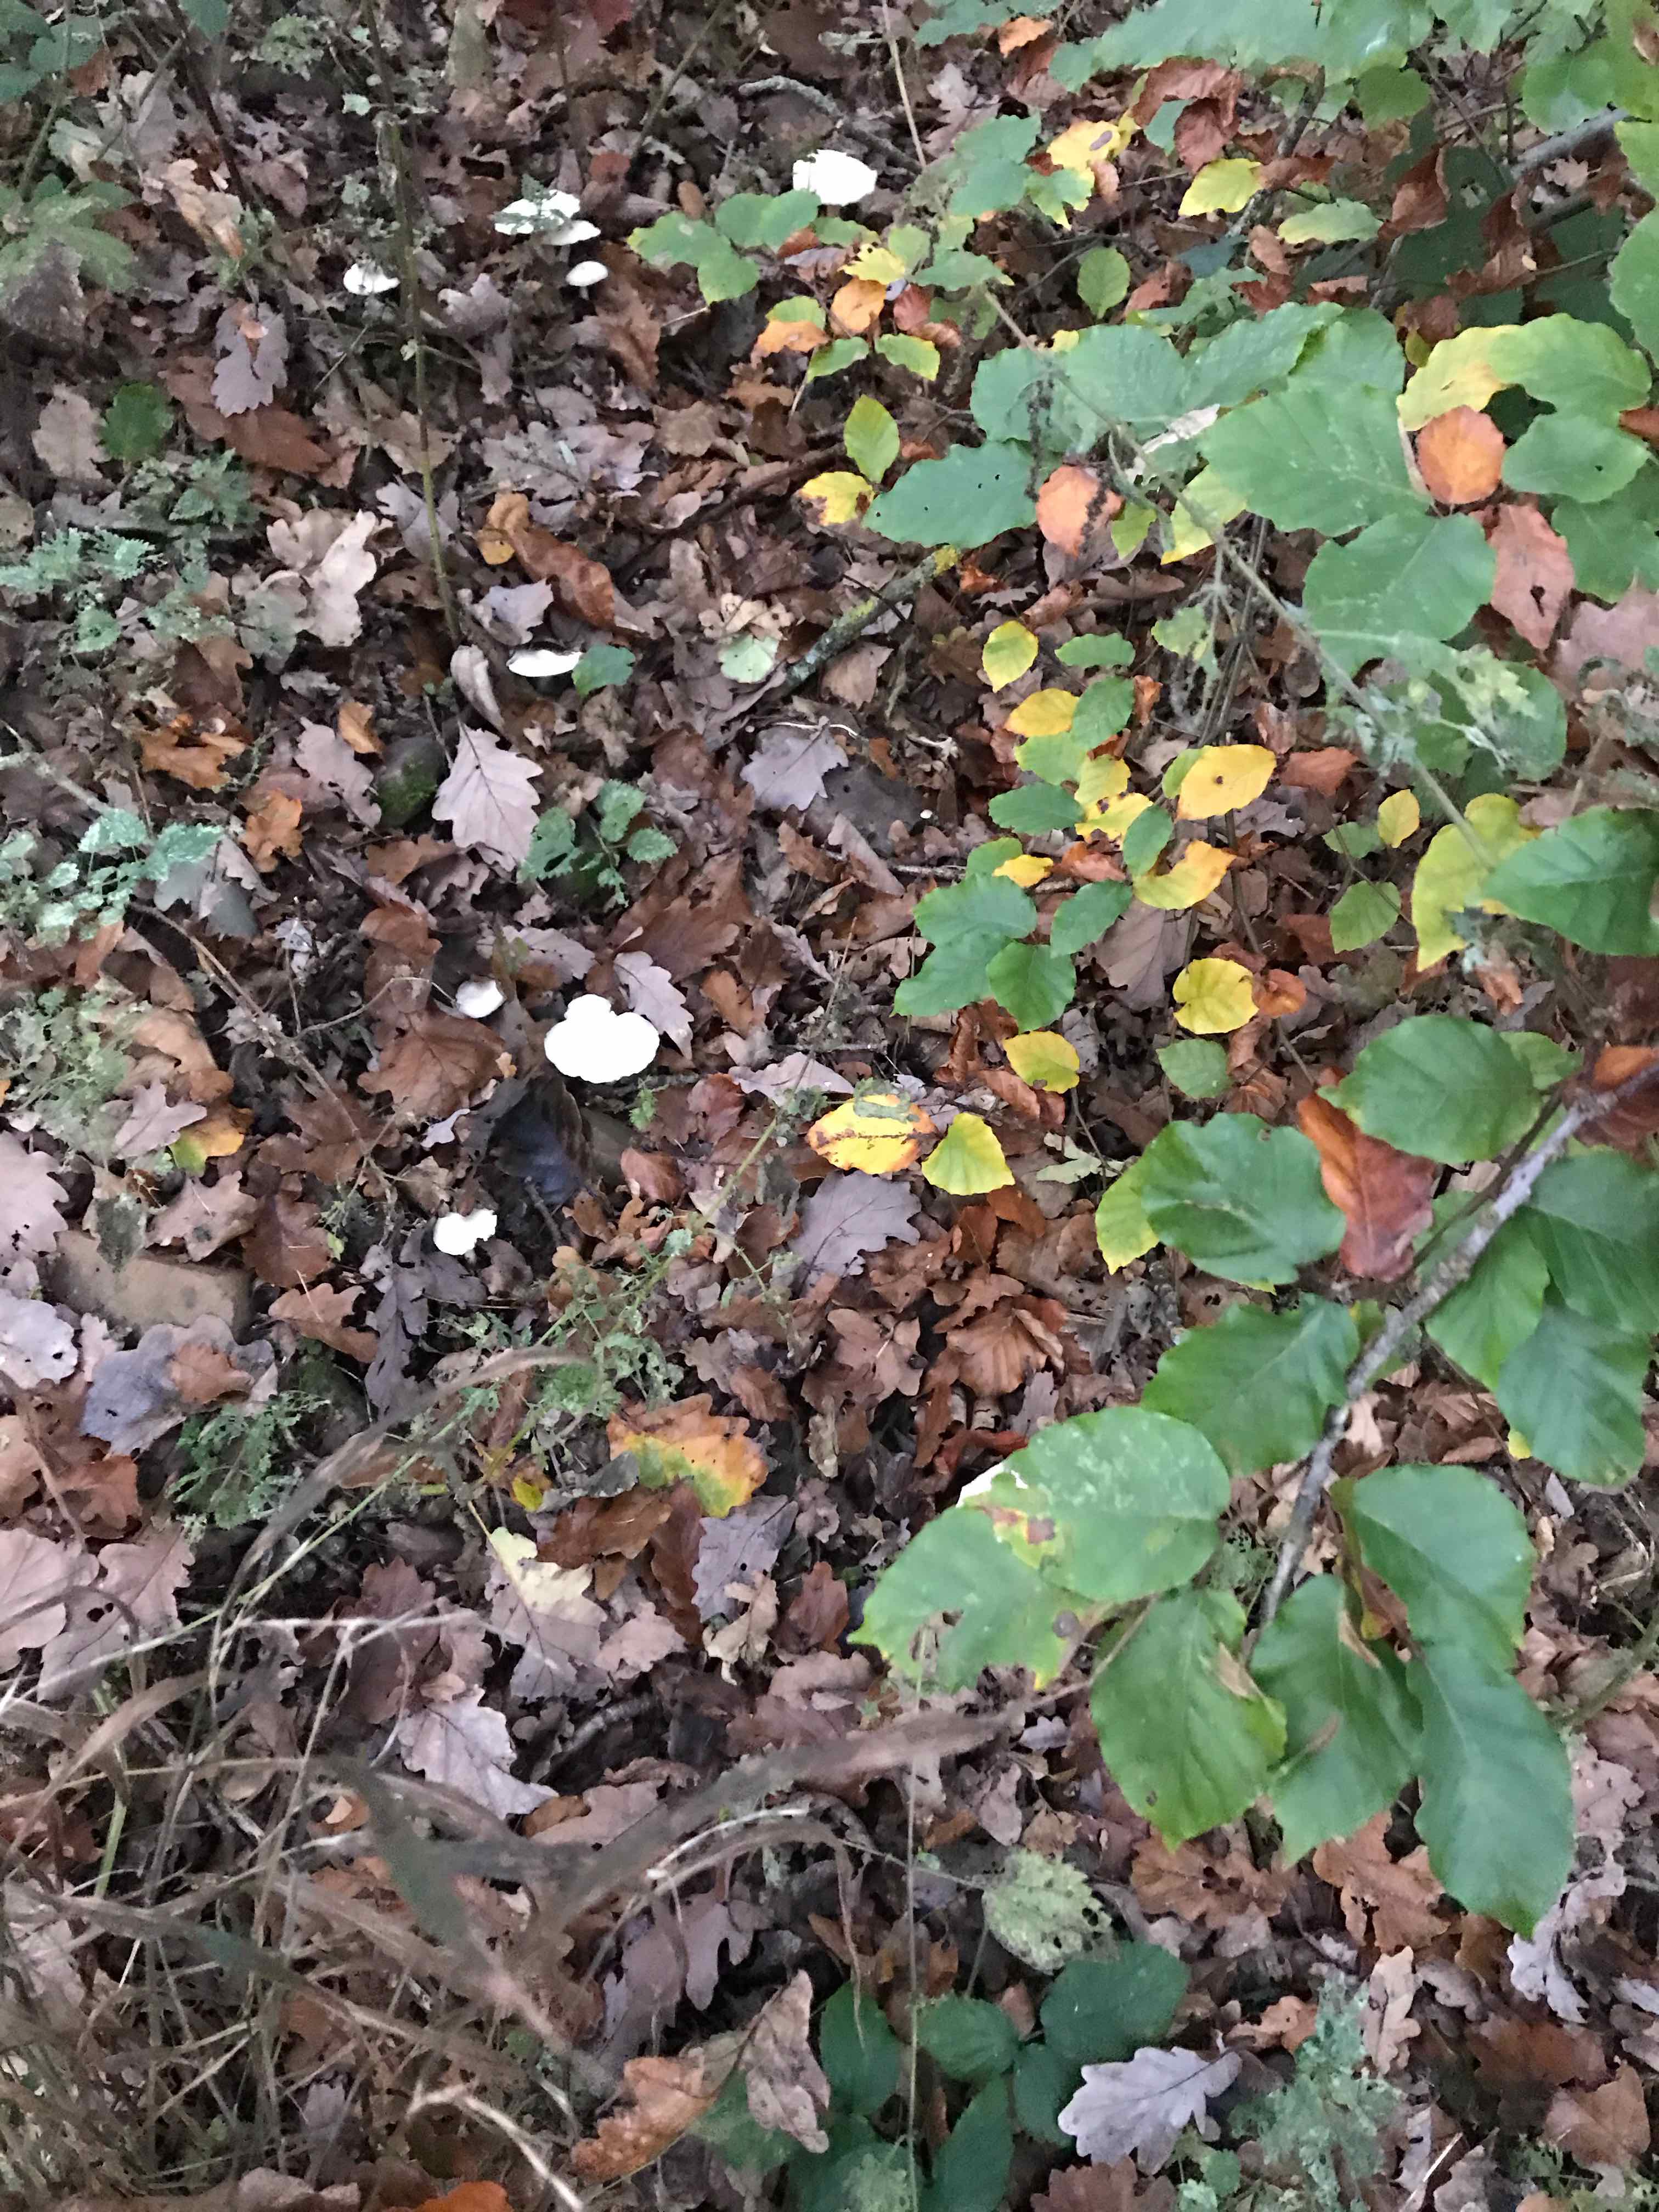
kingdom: Fungi
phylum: Basidiomycota
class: Agaricomycetes
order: Agaricales
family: Tricholomataceae
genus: Clitocybe
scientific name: Clitocybe phyllophila
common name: løv-tragthat
